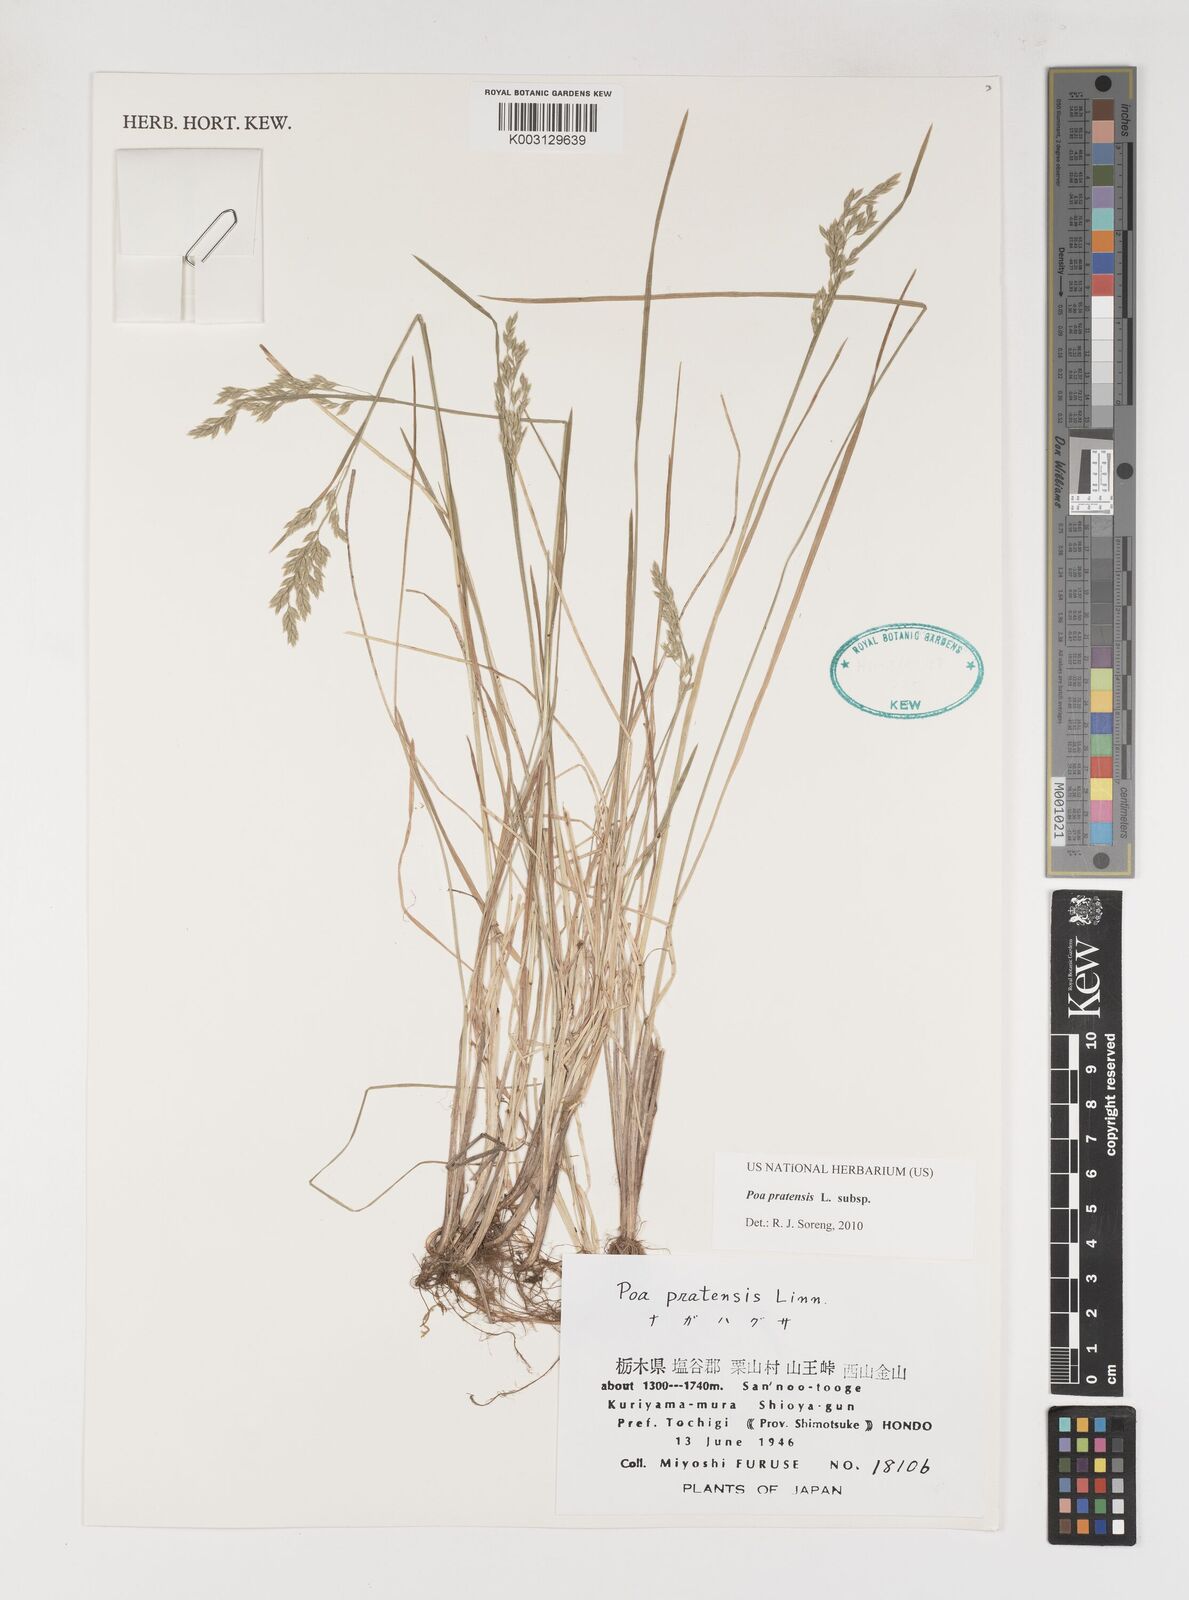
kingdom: Plantae
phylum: Tracheophyta
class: Liliopsida
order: Poales
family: Poaceae
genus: Poa
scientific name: Poa angustifolia
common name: Narrow-leaved meadow-grass
